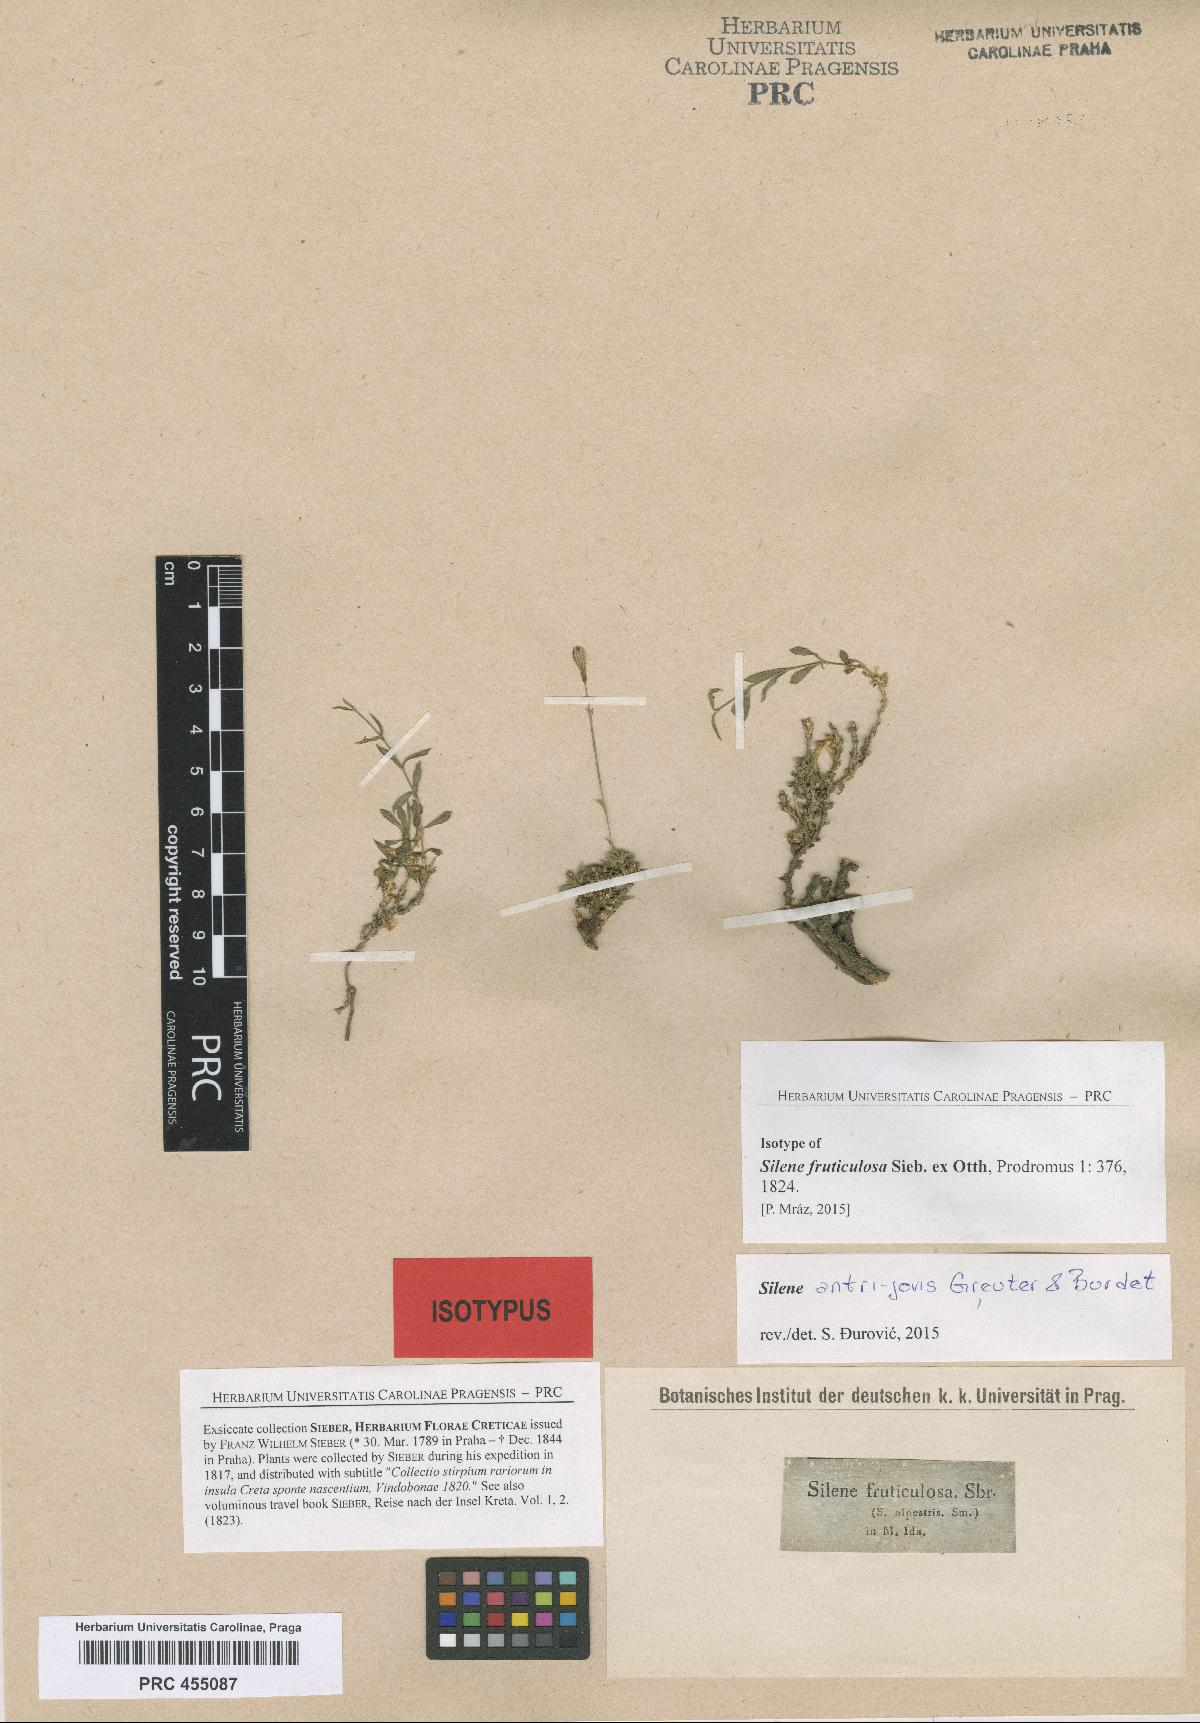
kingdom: Plantae
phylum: Tracheophyta
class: Magnoliopsida
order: Caryophyllales
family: Caryophyllaceae
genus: Silene
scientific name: Silene antri-jovis
